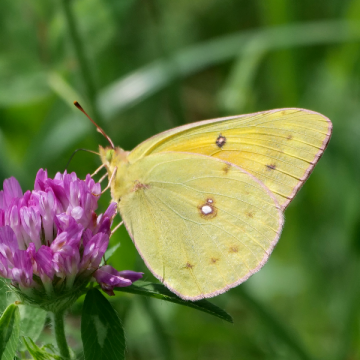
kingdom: Animalia
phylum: Arthropoda
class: Insecta
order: Lepidoptera
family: Pieridae
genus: Colias
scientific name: Colias eurytheme
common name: Orange Sulphur
